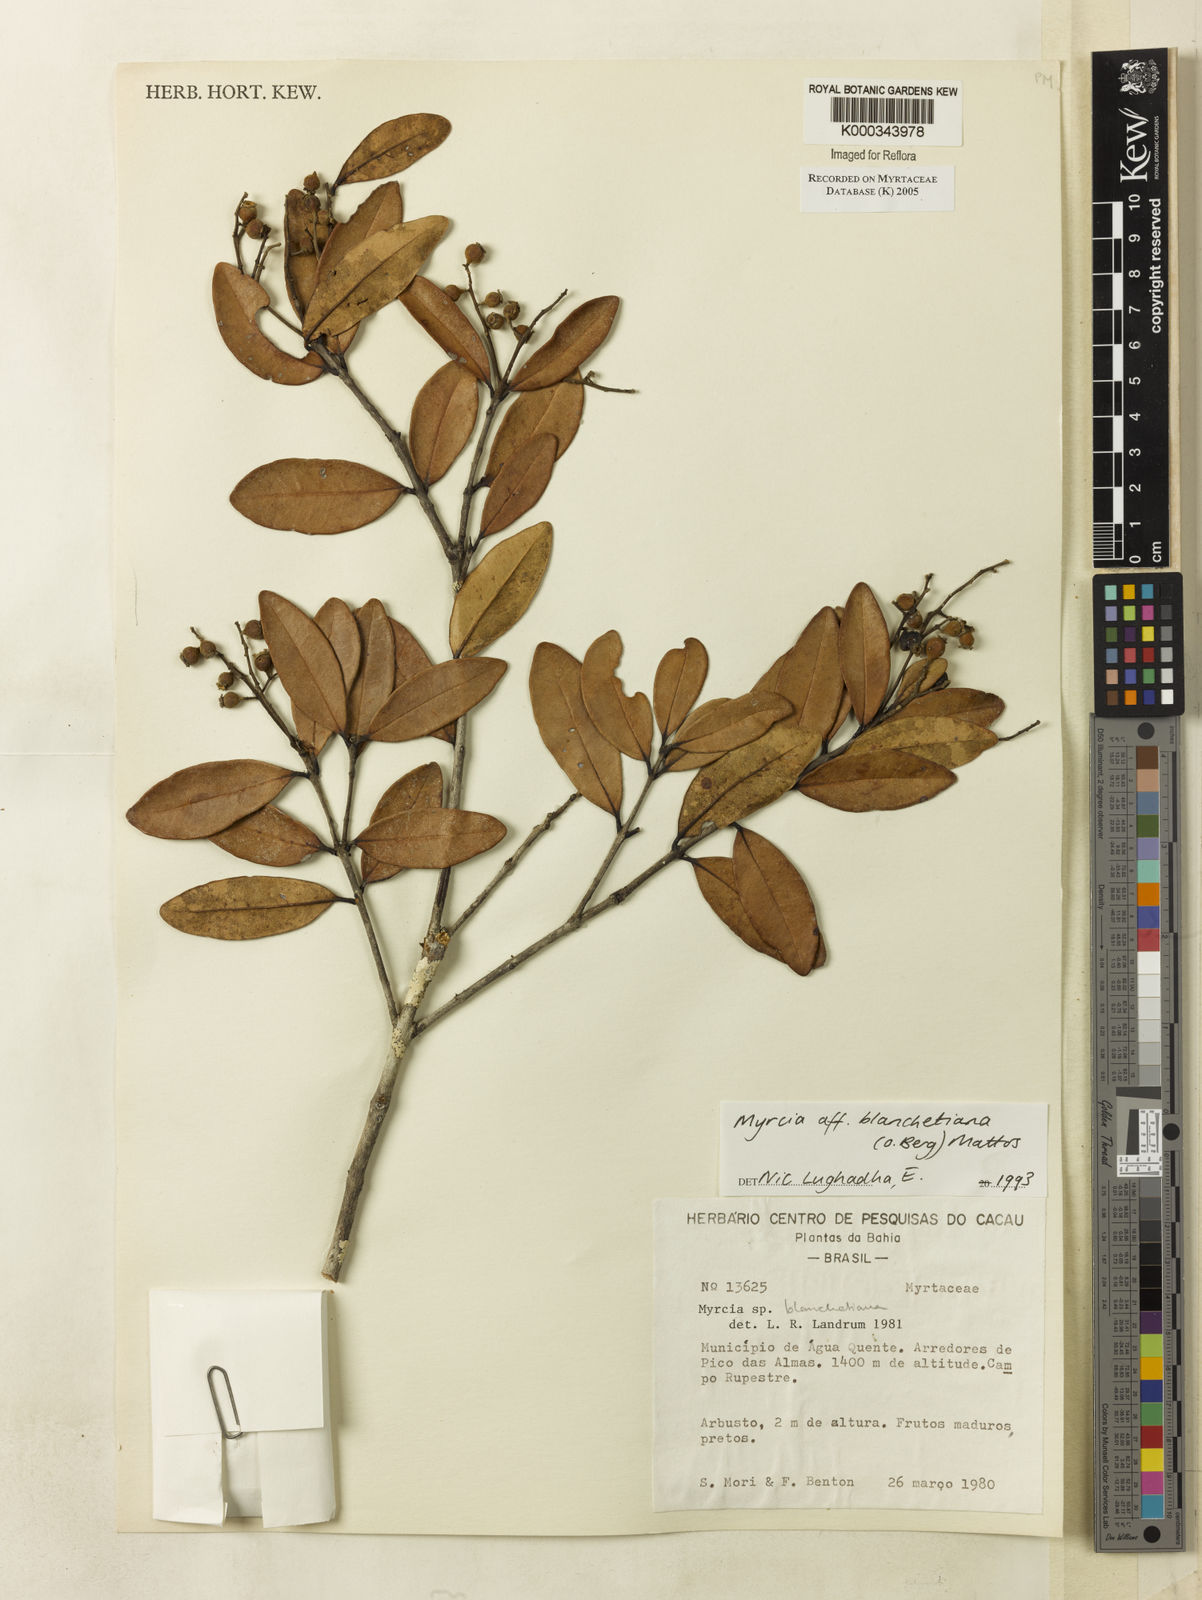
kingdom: Plantae
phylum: Tracheophyta
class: Magnoliopsida
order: Myrtales
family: Myrtaceae
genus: Myrcia
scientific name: Myrcia blanchetiana
